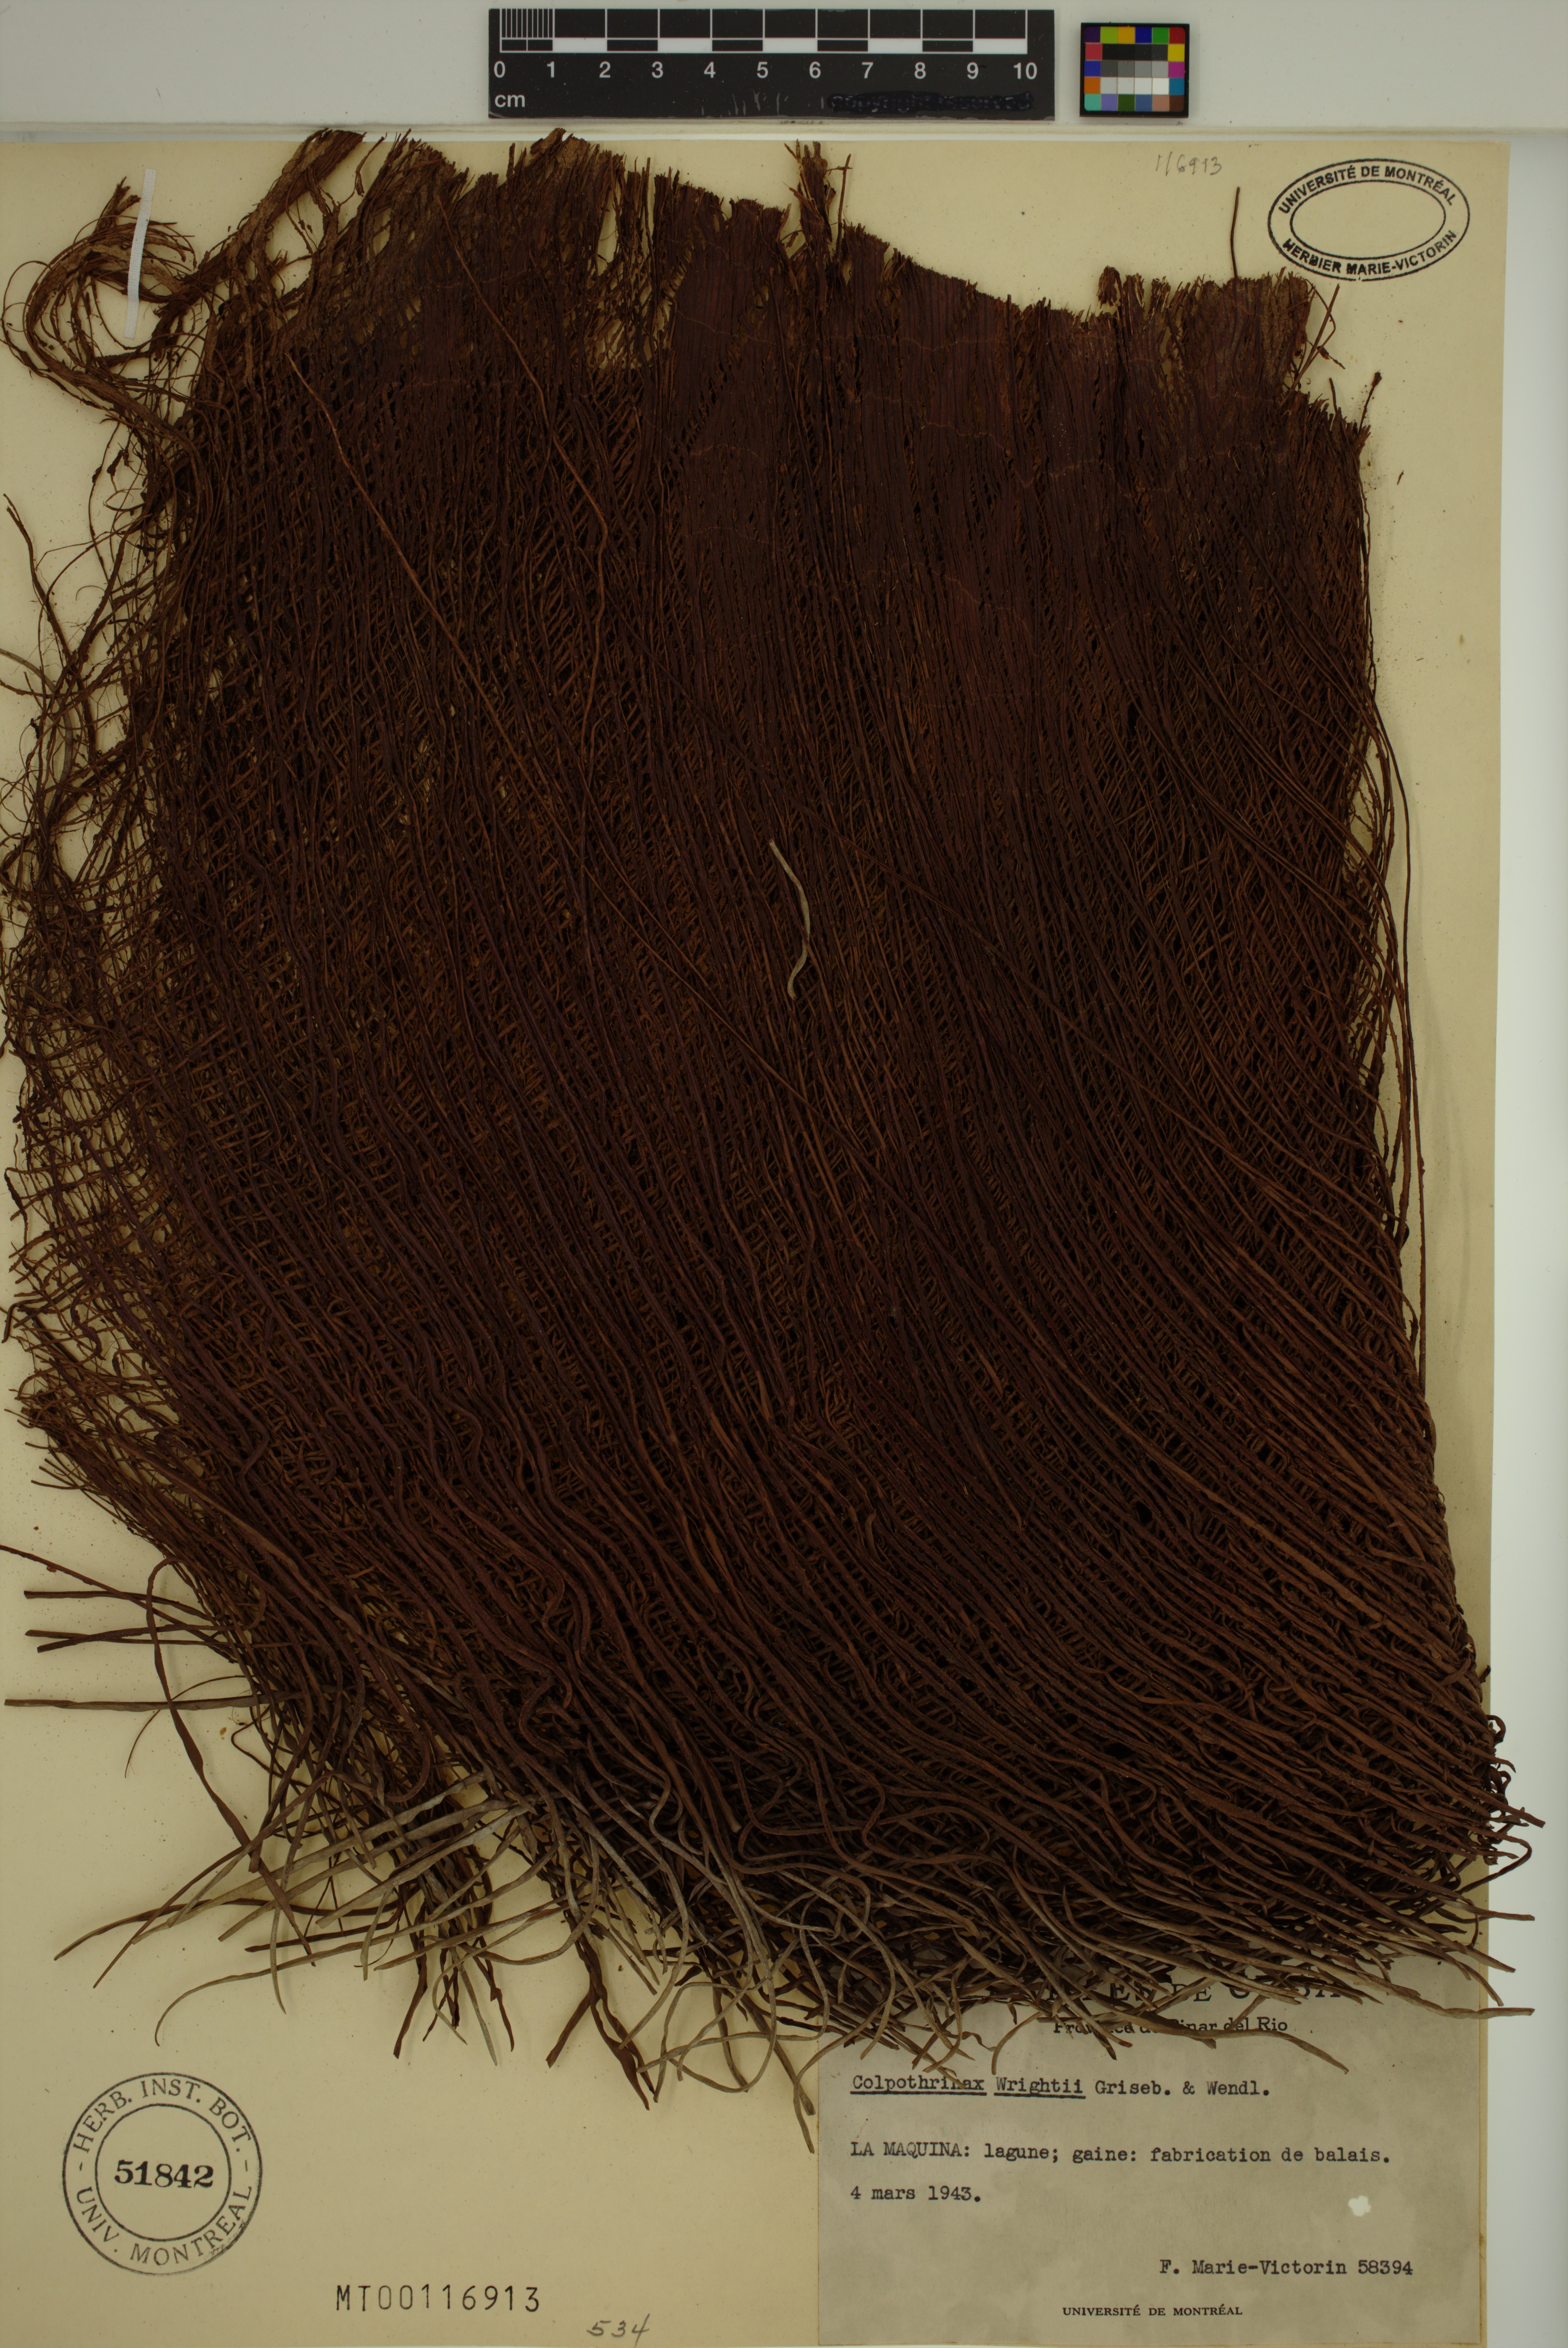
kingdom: Plantae
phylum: Tracheophyta
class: Liliopsida
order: Arecales
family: Arecaceae
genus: Colpothrinax
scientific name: Colpothrinax wrightii
